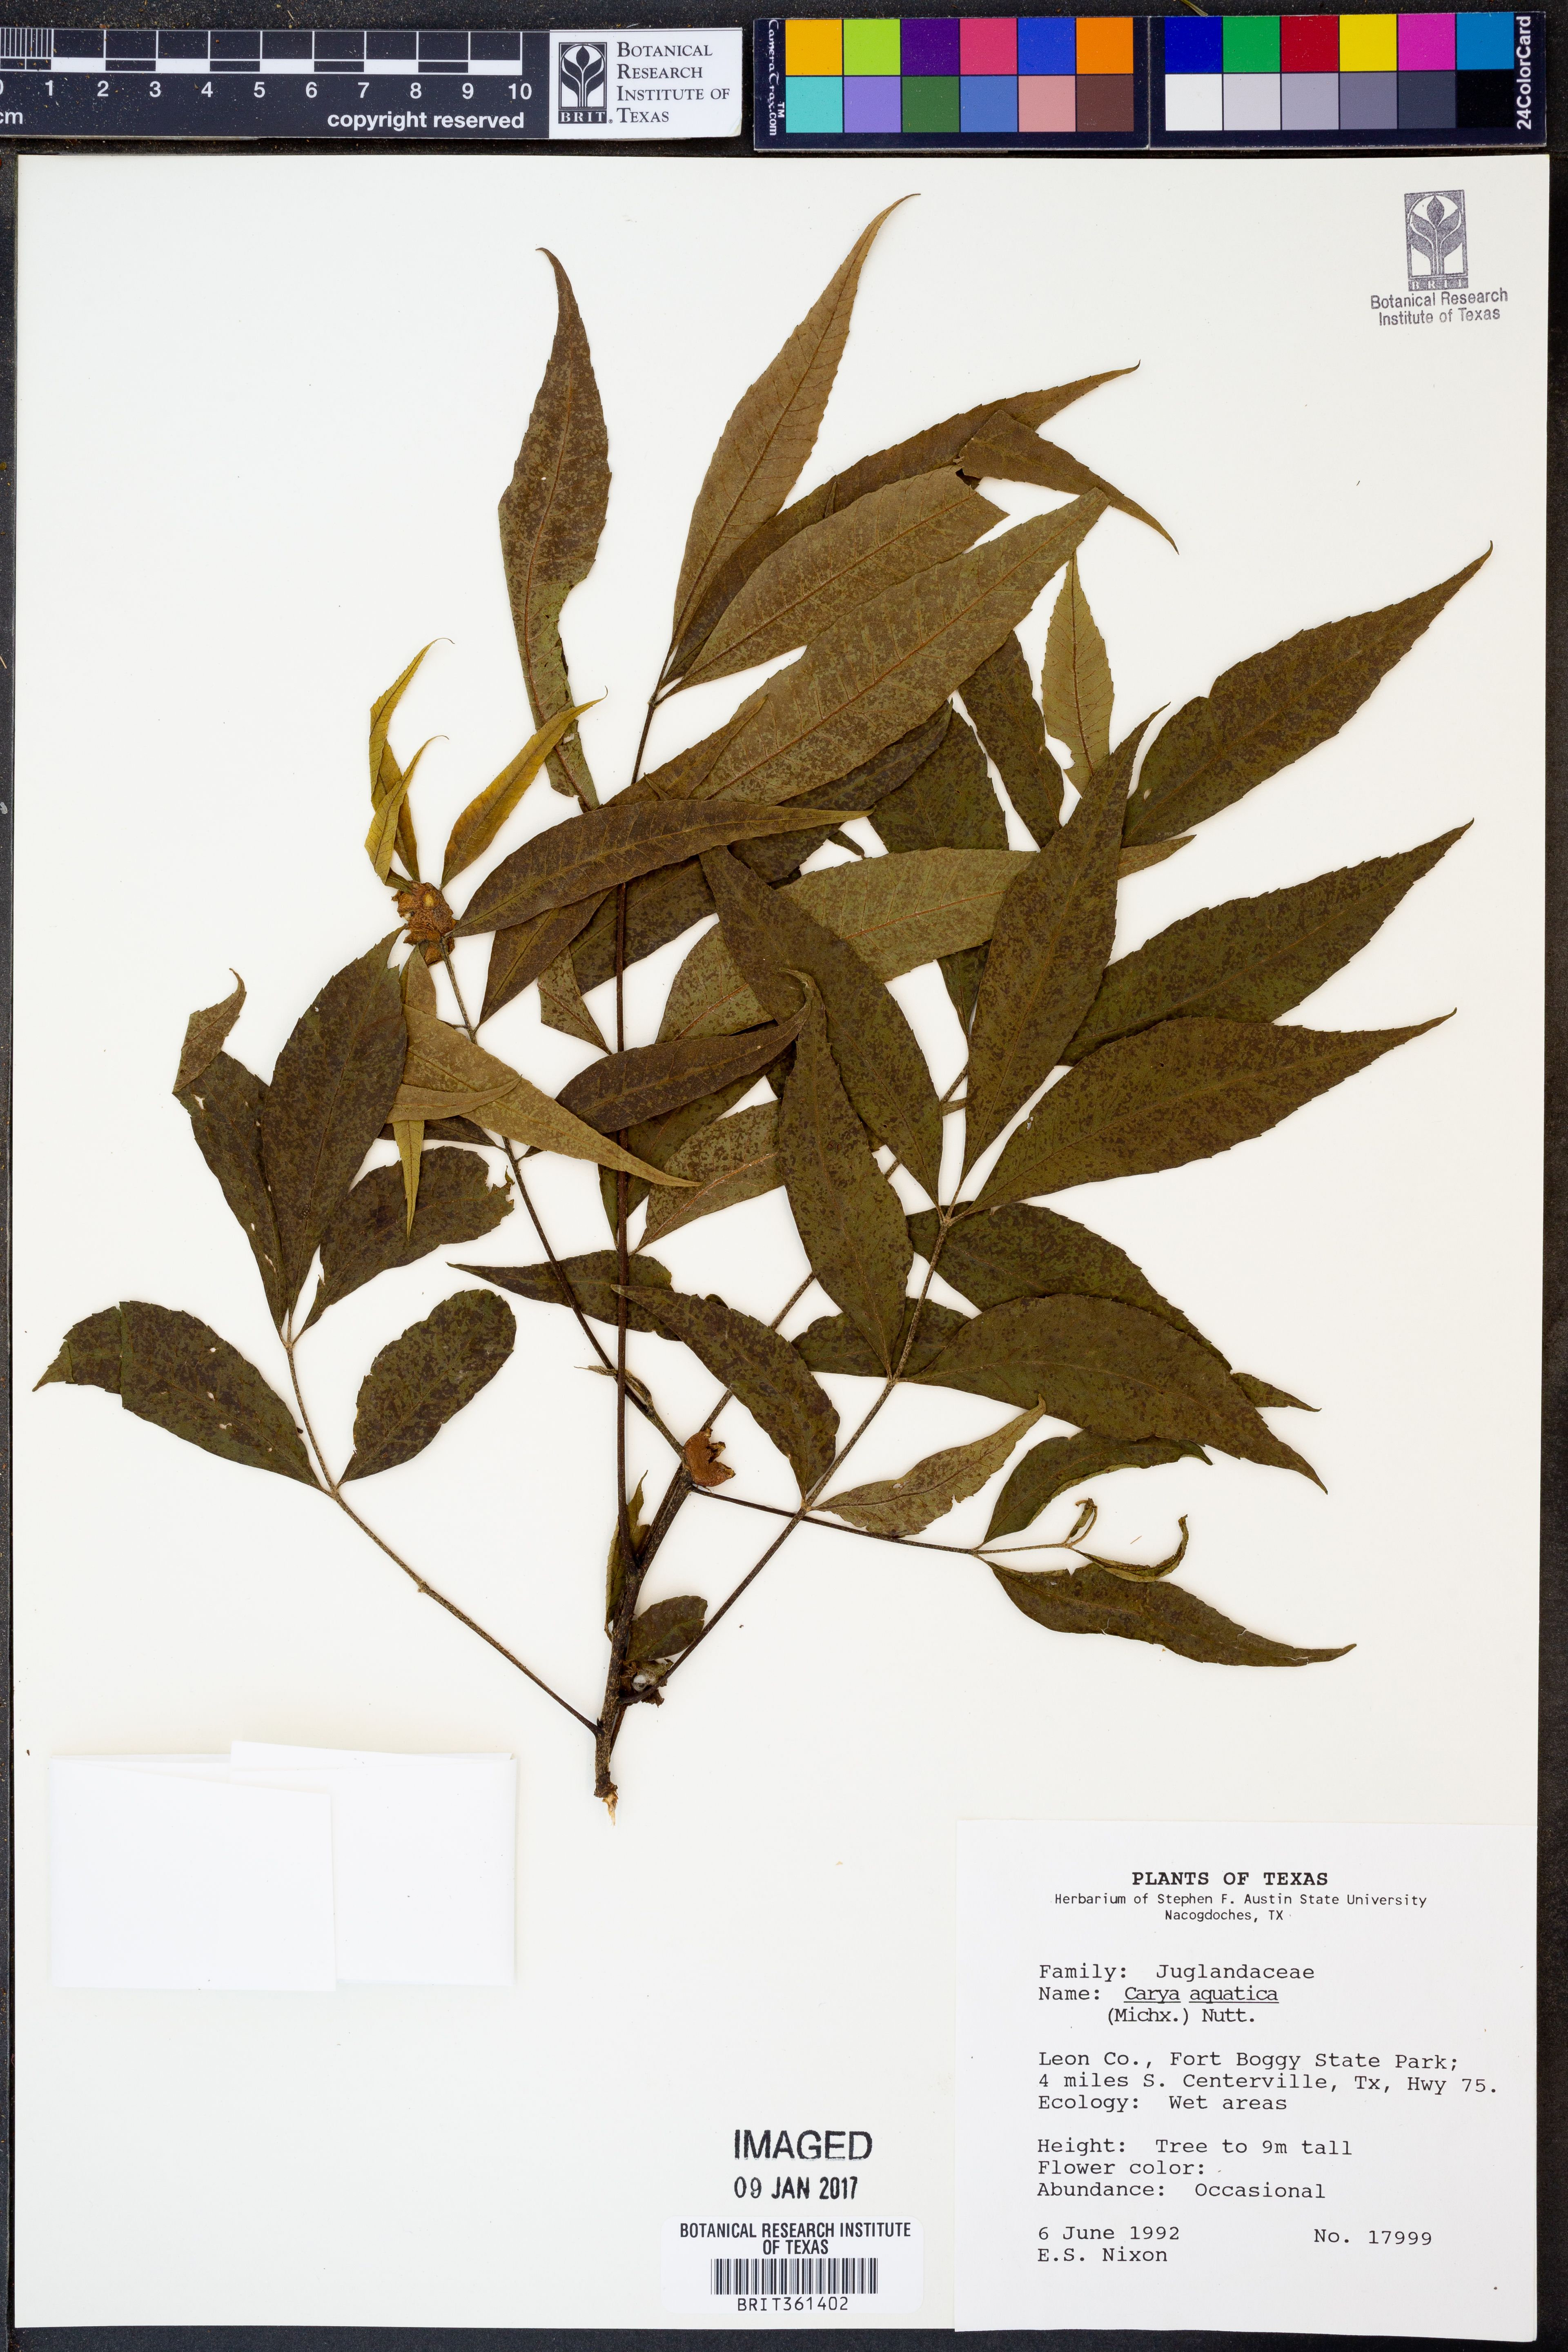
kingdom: Plantae
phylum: Tracheophyta
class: Magnoliopsida
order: Fagales
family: Juglandaceae
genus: Carya
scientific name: Carya aquatica
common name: Water hickory
